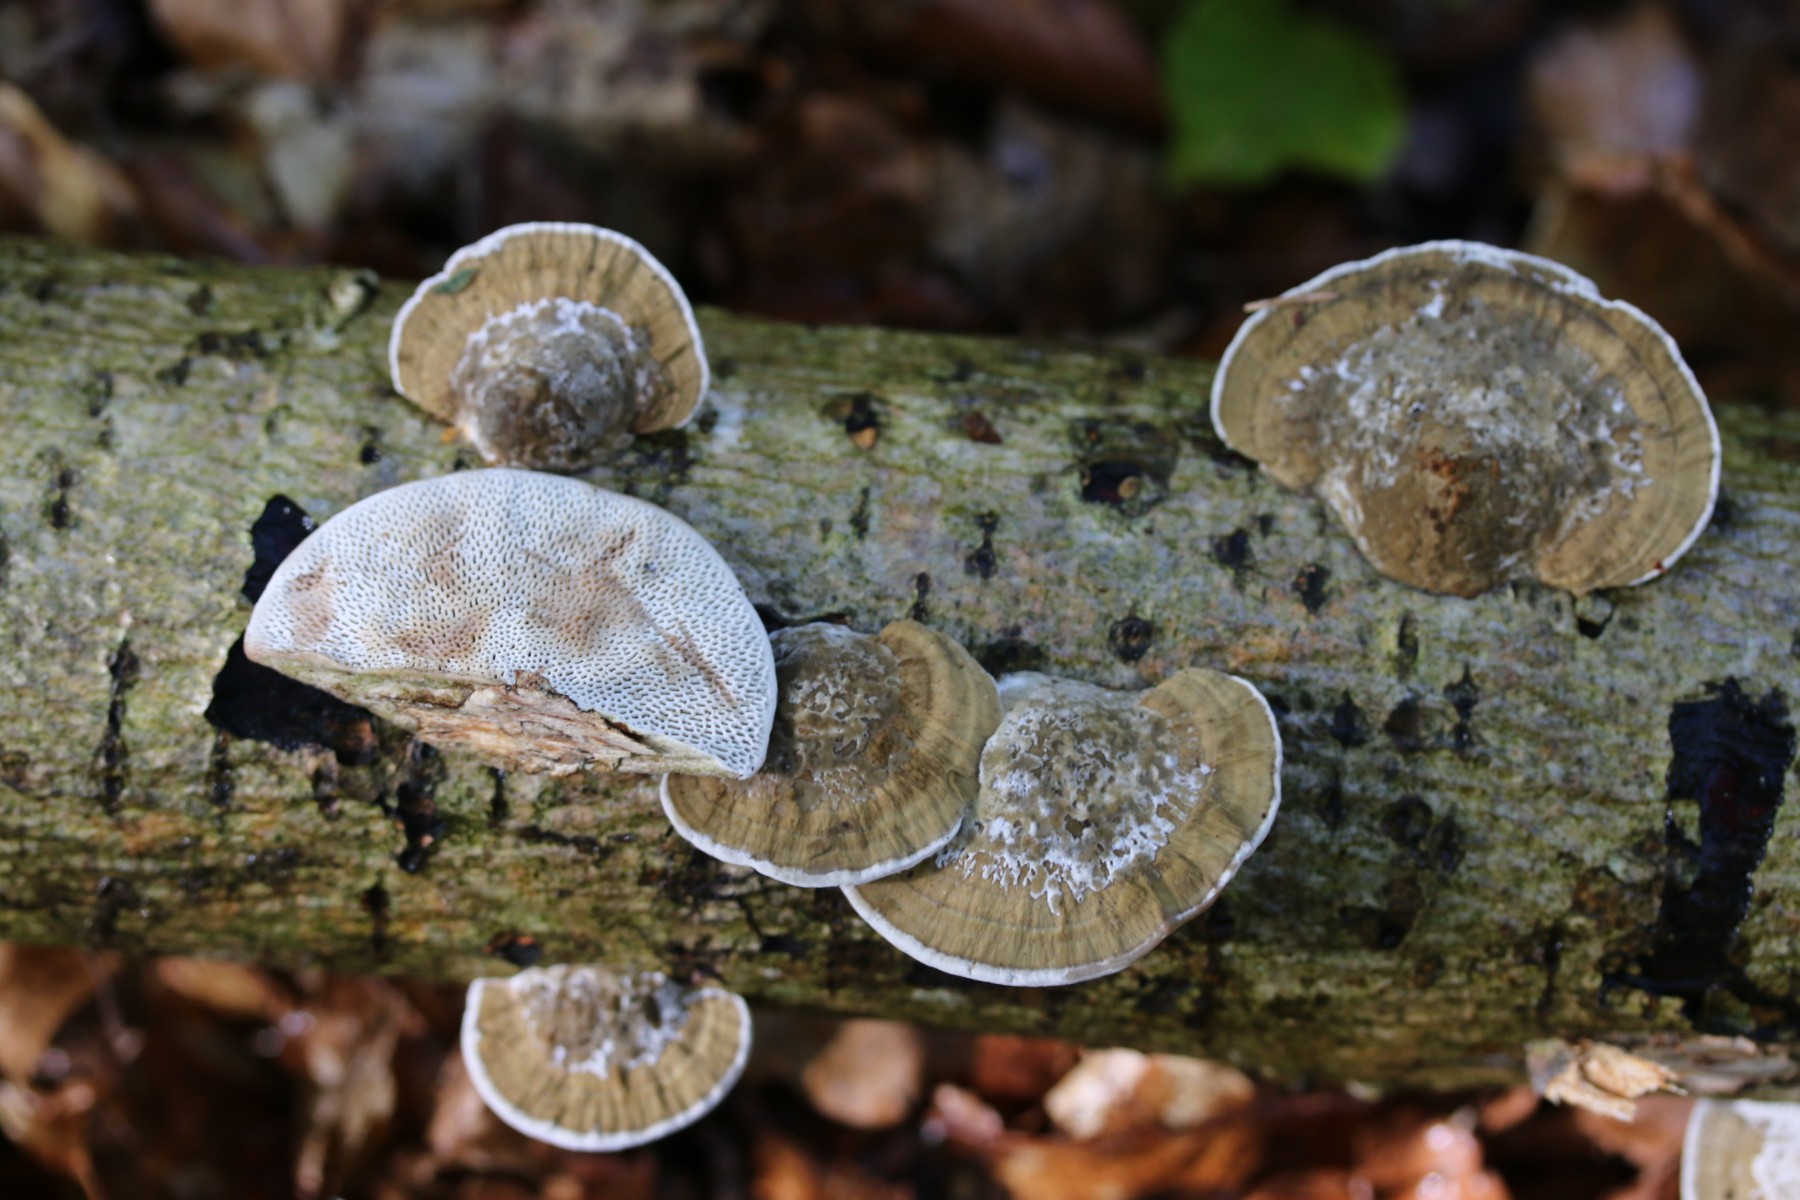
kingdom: Fungi
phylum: Basidiomycota
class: Agaricomycetes
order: Polyporales
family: Polyporaceae
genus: Daedaleopsis
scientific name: Daedaleopsis confragosa
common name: rødmende læderporesvamp
